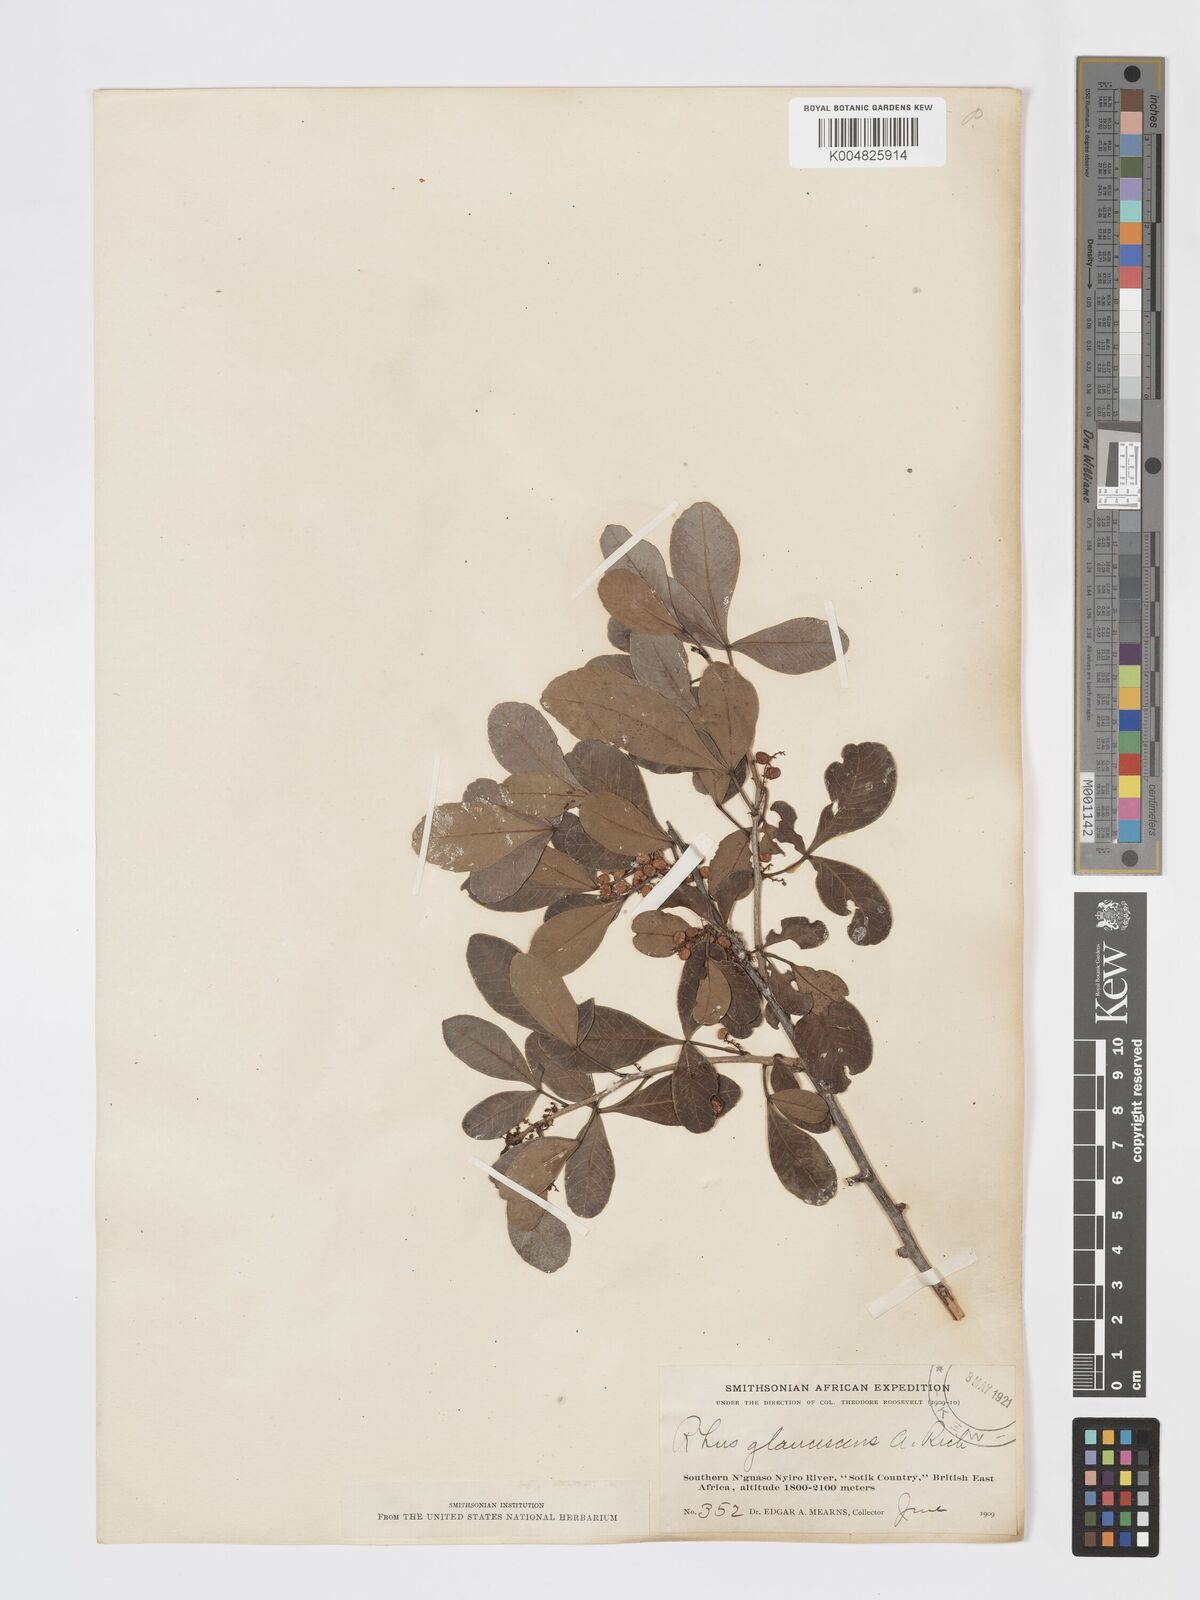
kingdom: Plantae
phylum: Tracheophyta
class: Magnoliopsida
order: Sapindales
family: Anacardiaceae
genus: Searsia
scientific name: Searsia natalensis
